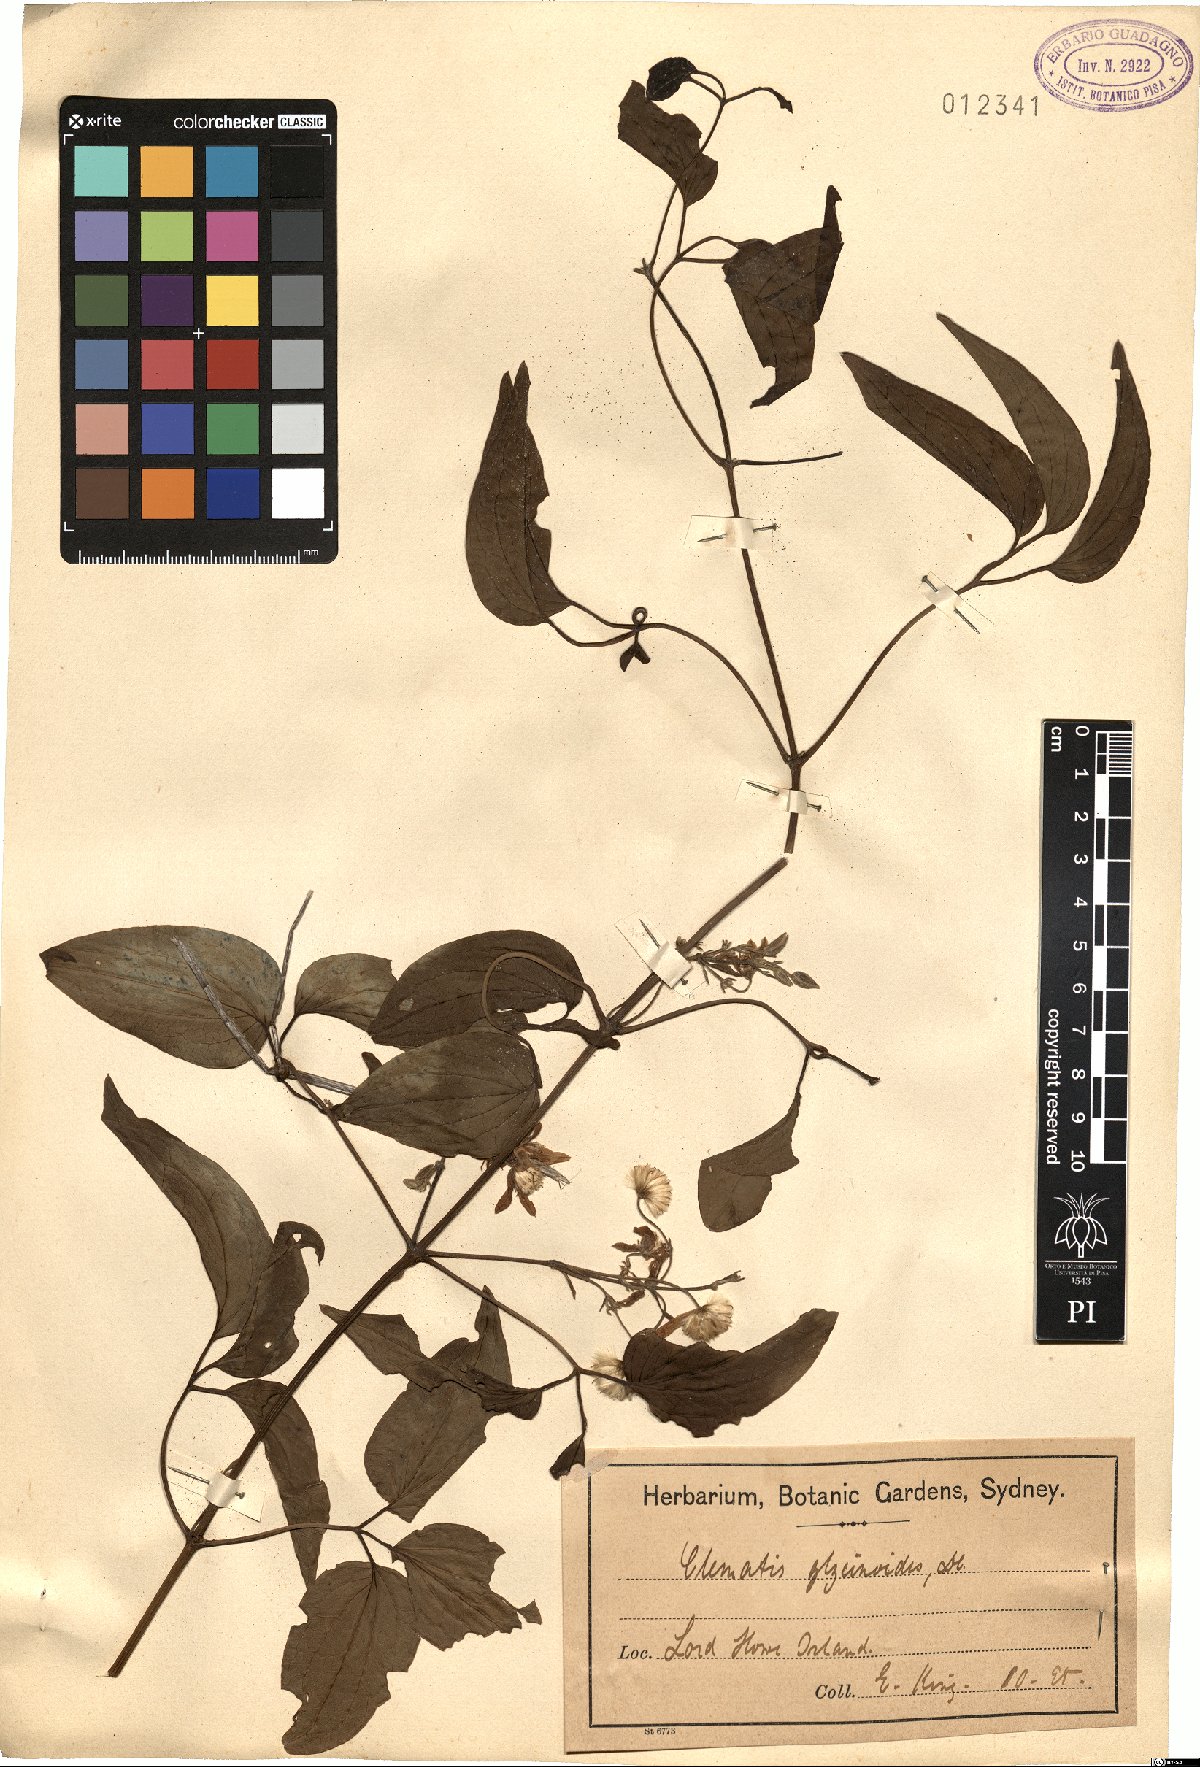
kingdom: Plantae
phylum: Tracheophyta
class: Magnoliopsida
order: Ranunculales
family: Ranunculaceae
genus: Clematis
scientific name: Clematis glycinoides
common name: Forest clematis
